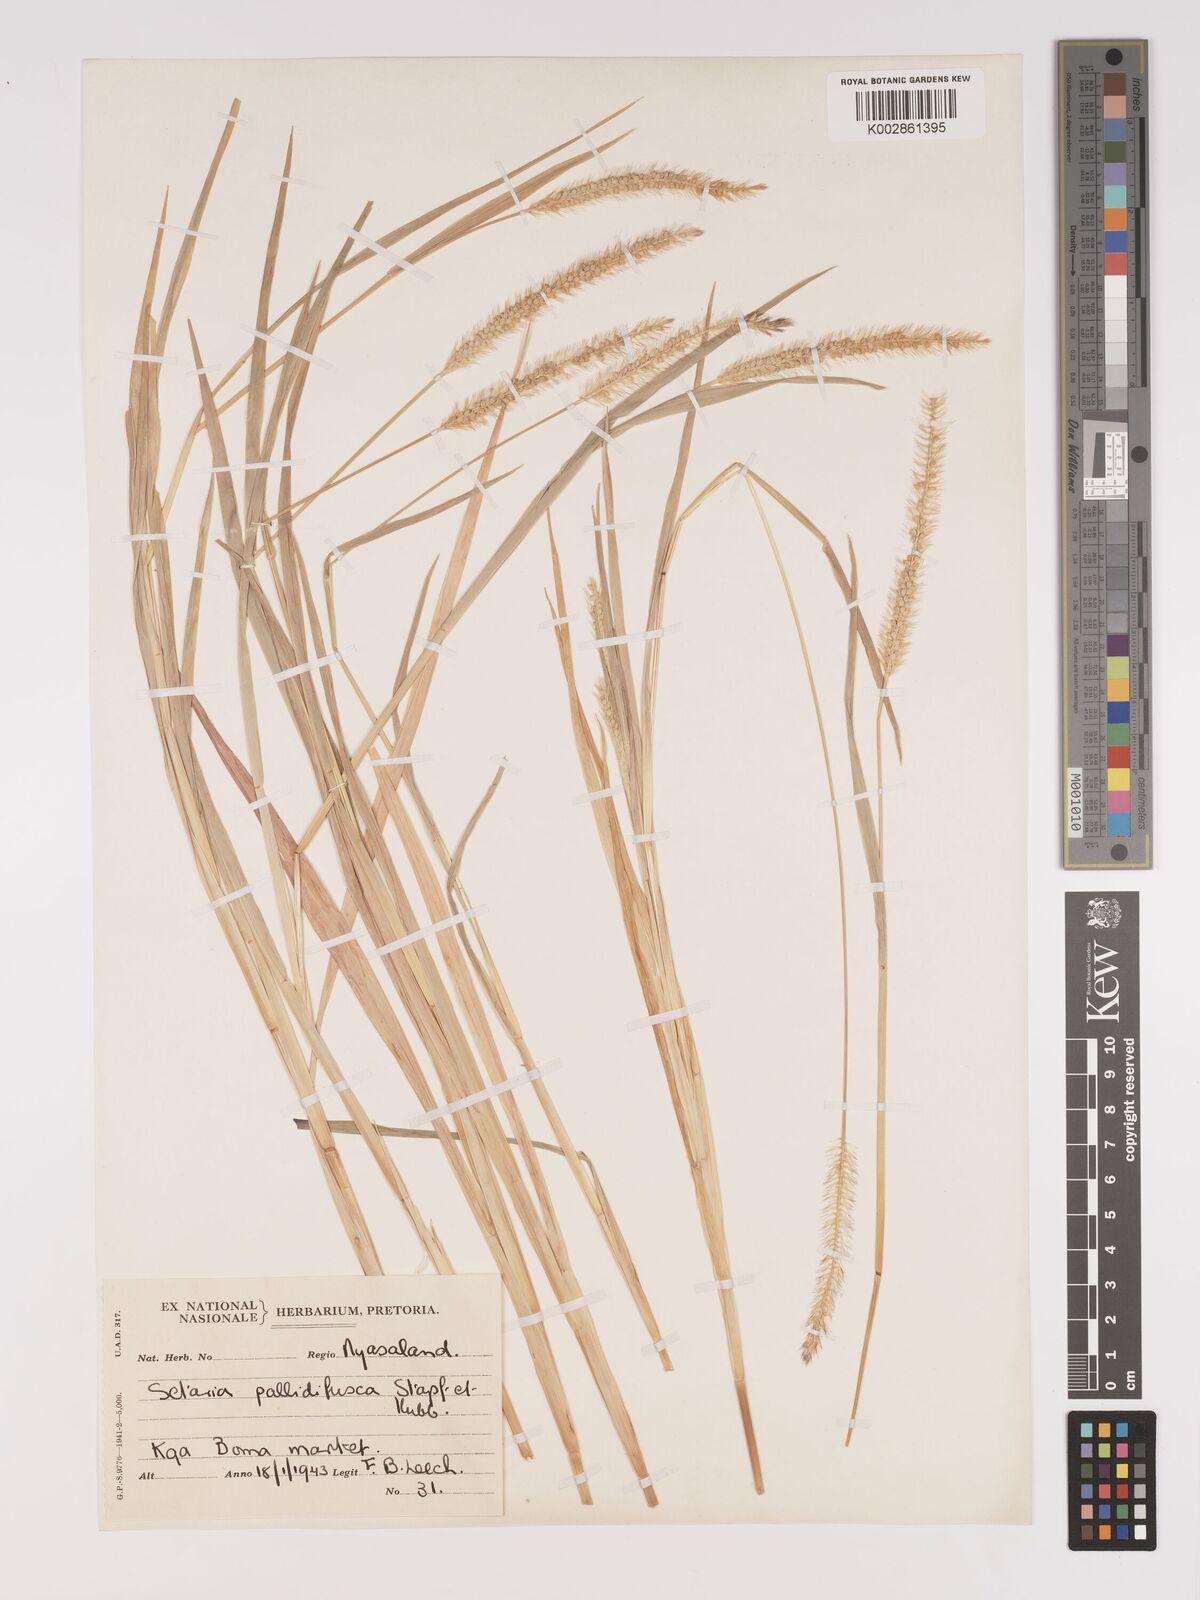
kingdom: Plantae
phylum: Tracheophyta
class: Liliopsida
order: Poales
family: Poaceae
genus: Setaria
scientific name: Setaria pumila
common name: Yellow bristle-grass
